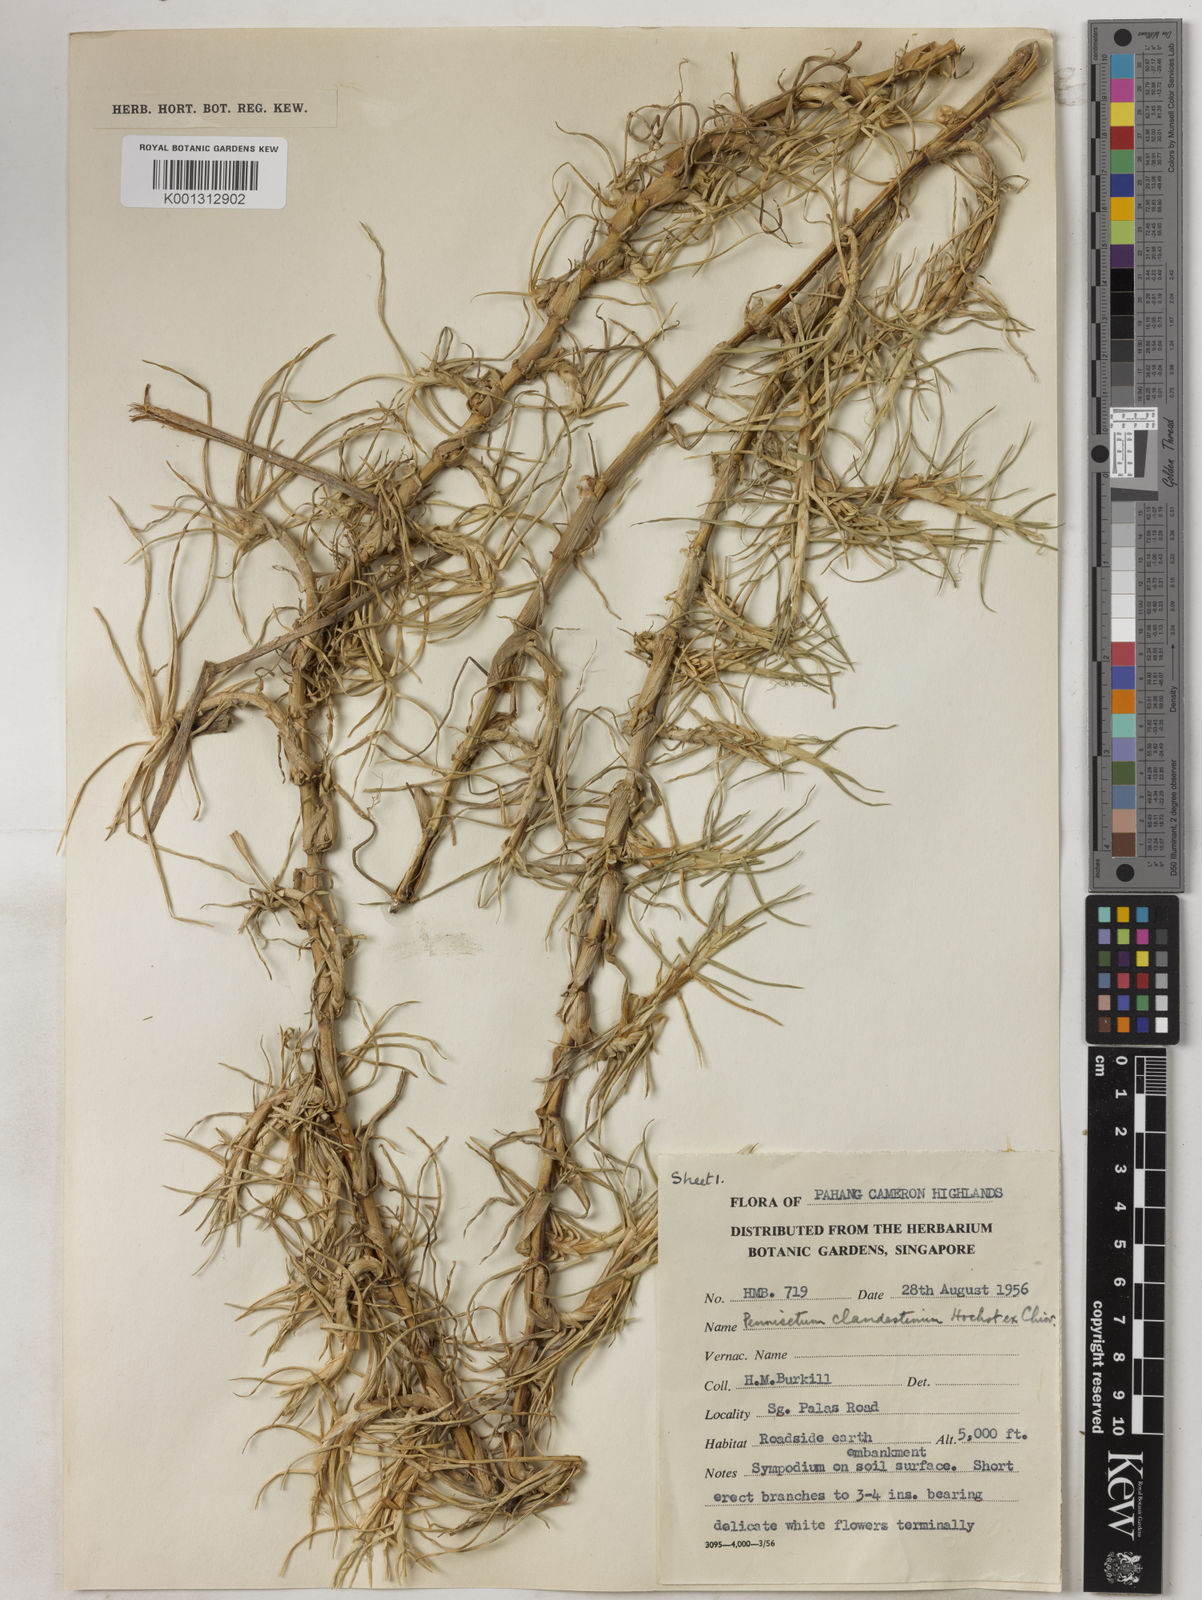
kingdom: Plantae
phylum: Tracheophyta
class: Liliopsida
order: Poales
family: Poaceae
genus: Cenchrus
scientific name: Cenchrus clandestinus
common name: Kikuyugrass
